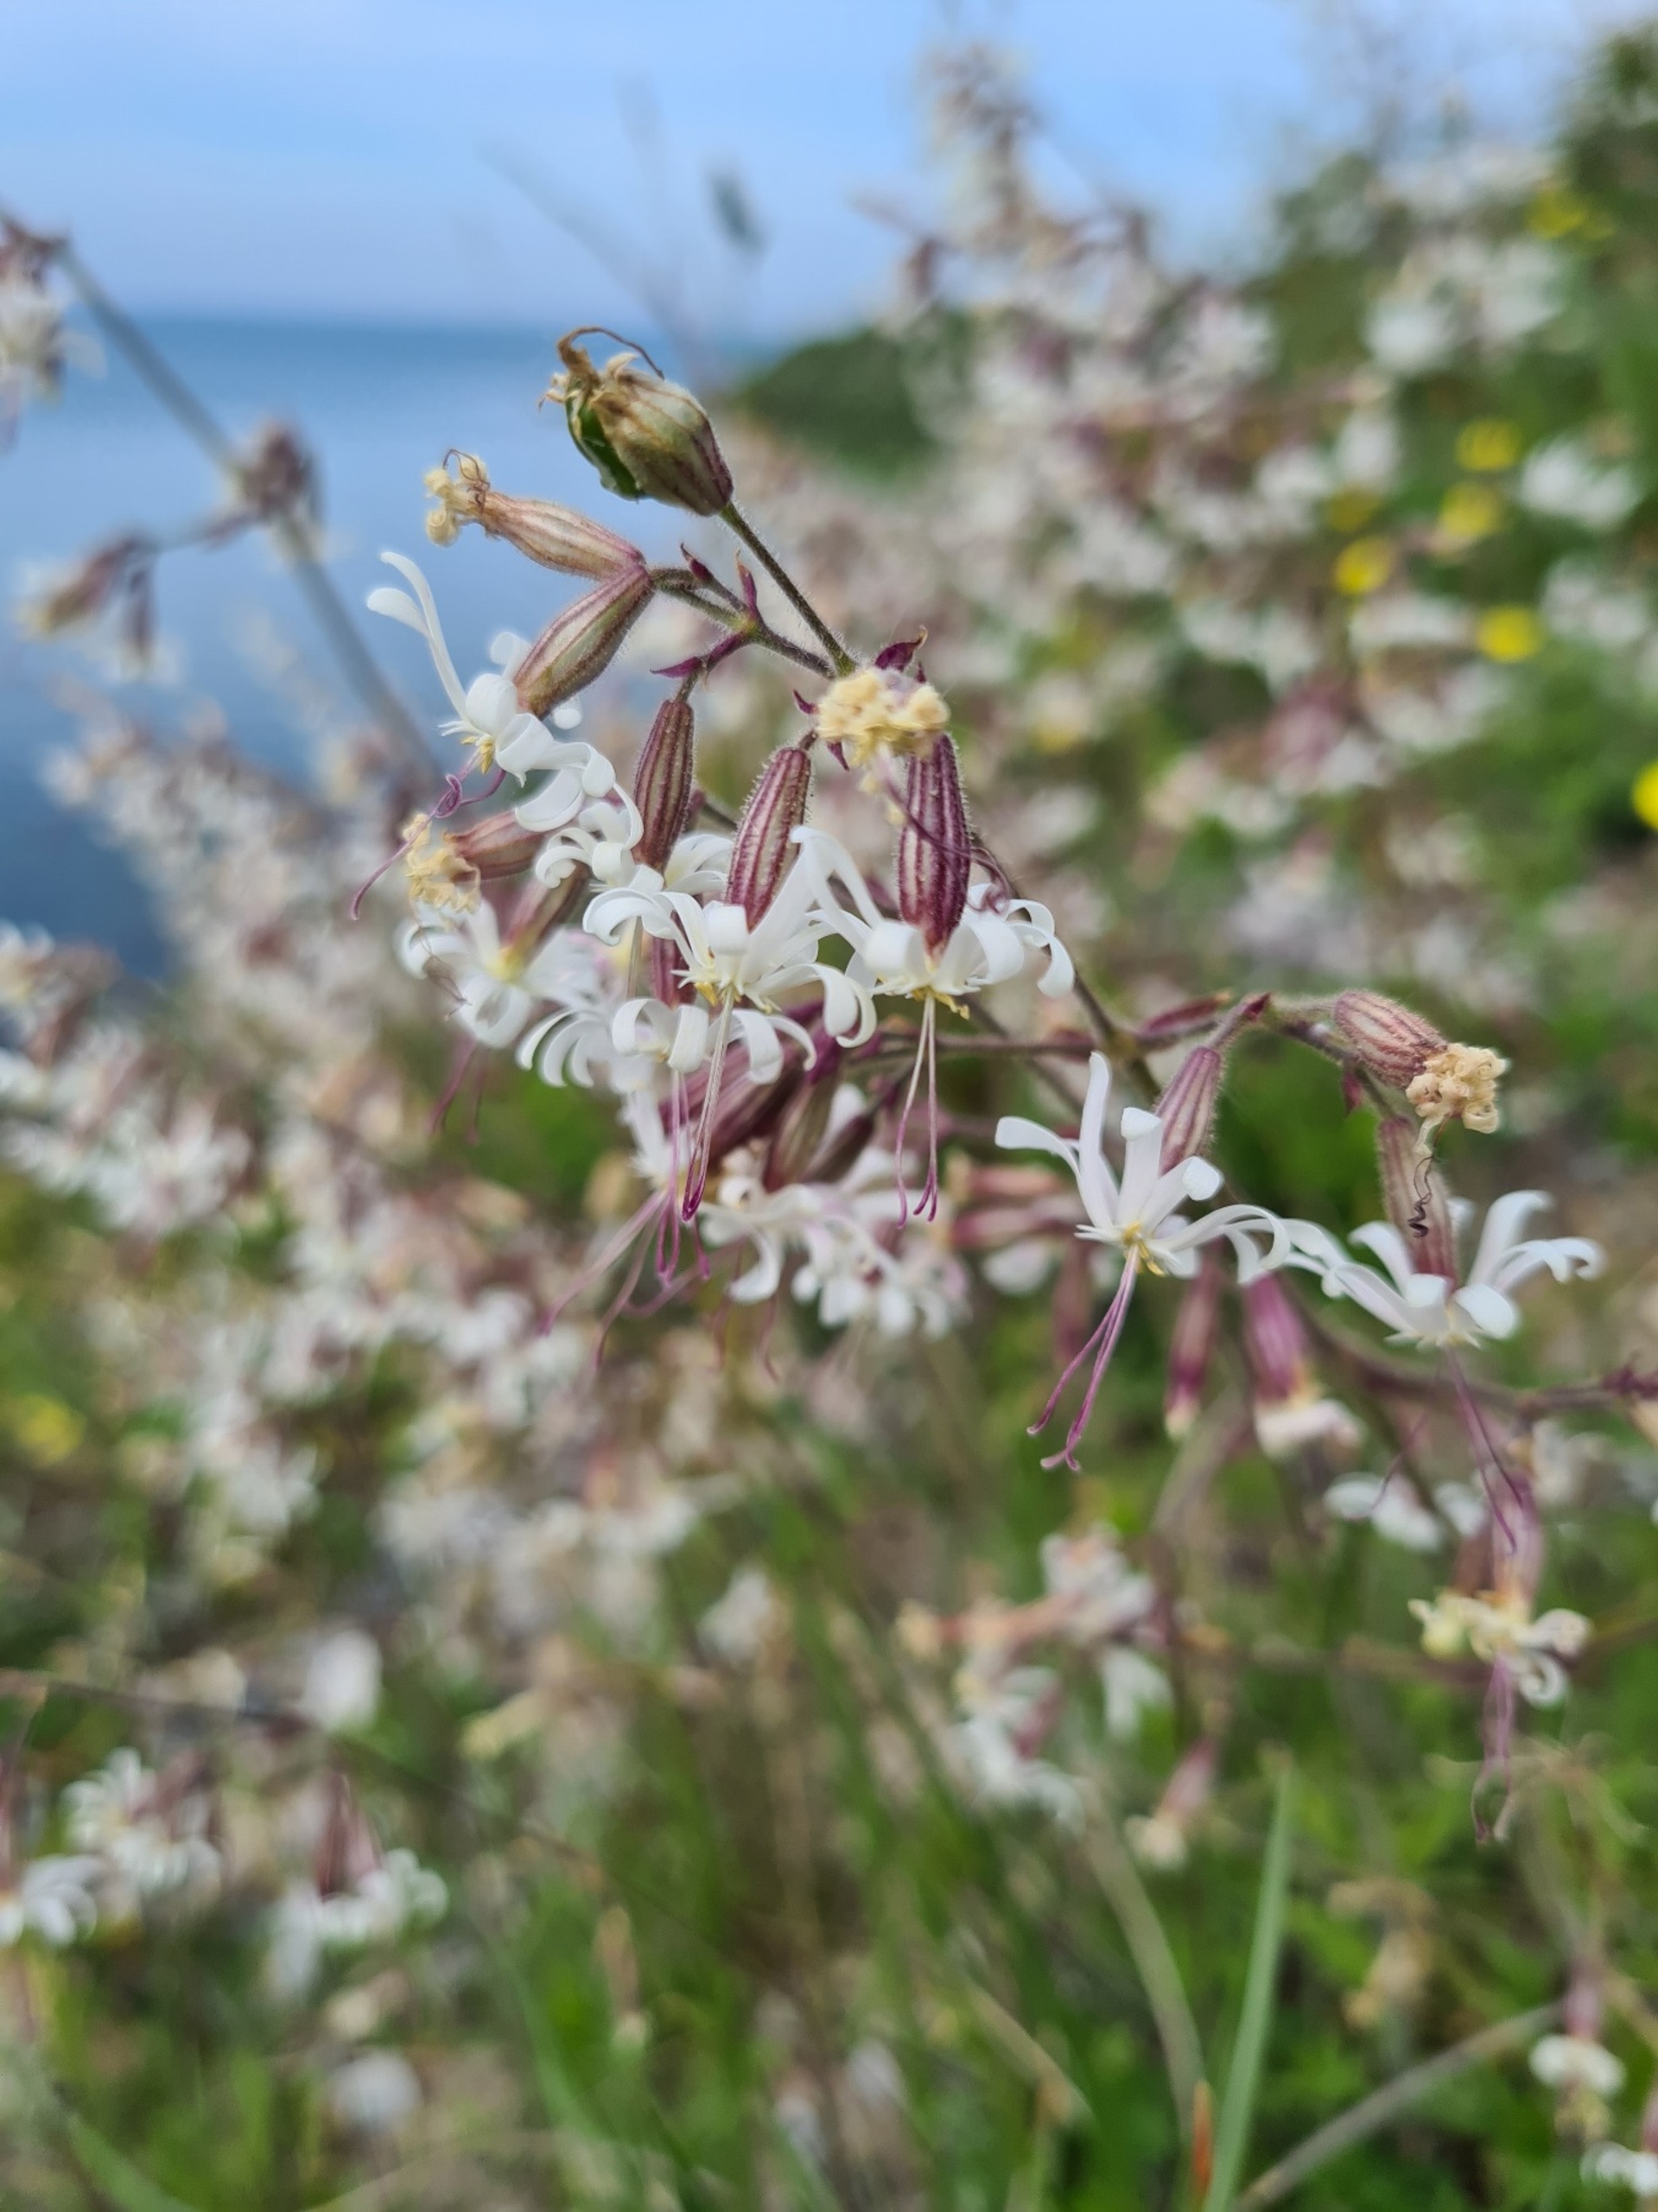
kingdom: Plantae
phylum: Tracheophyta
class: Magnoliopsida
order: Caryophyllales
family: Caryophyllaceae
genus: Silene
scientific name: Silene nutans
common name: Nikkende limurt
